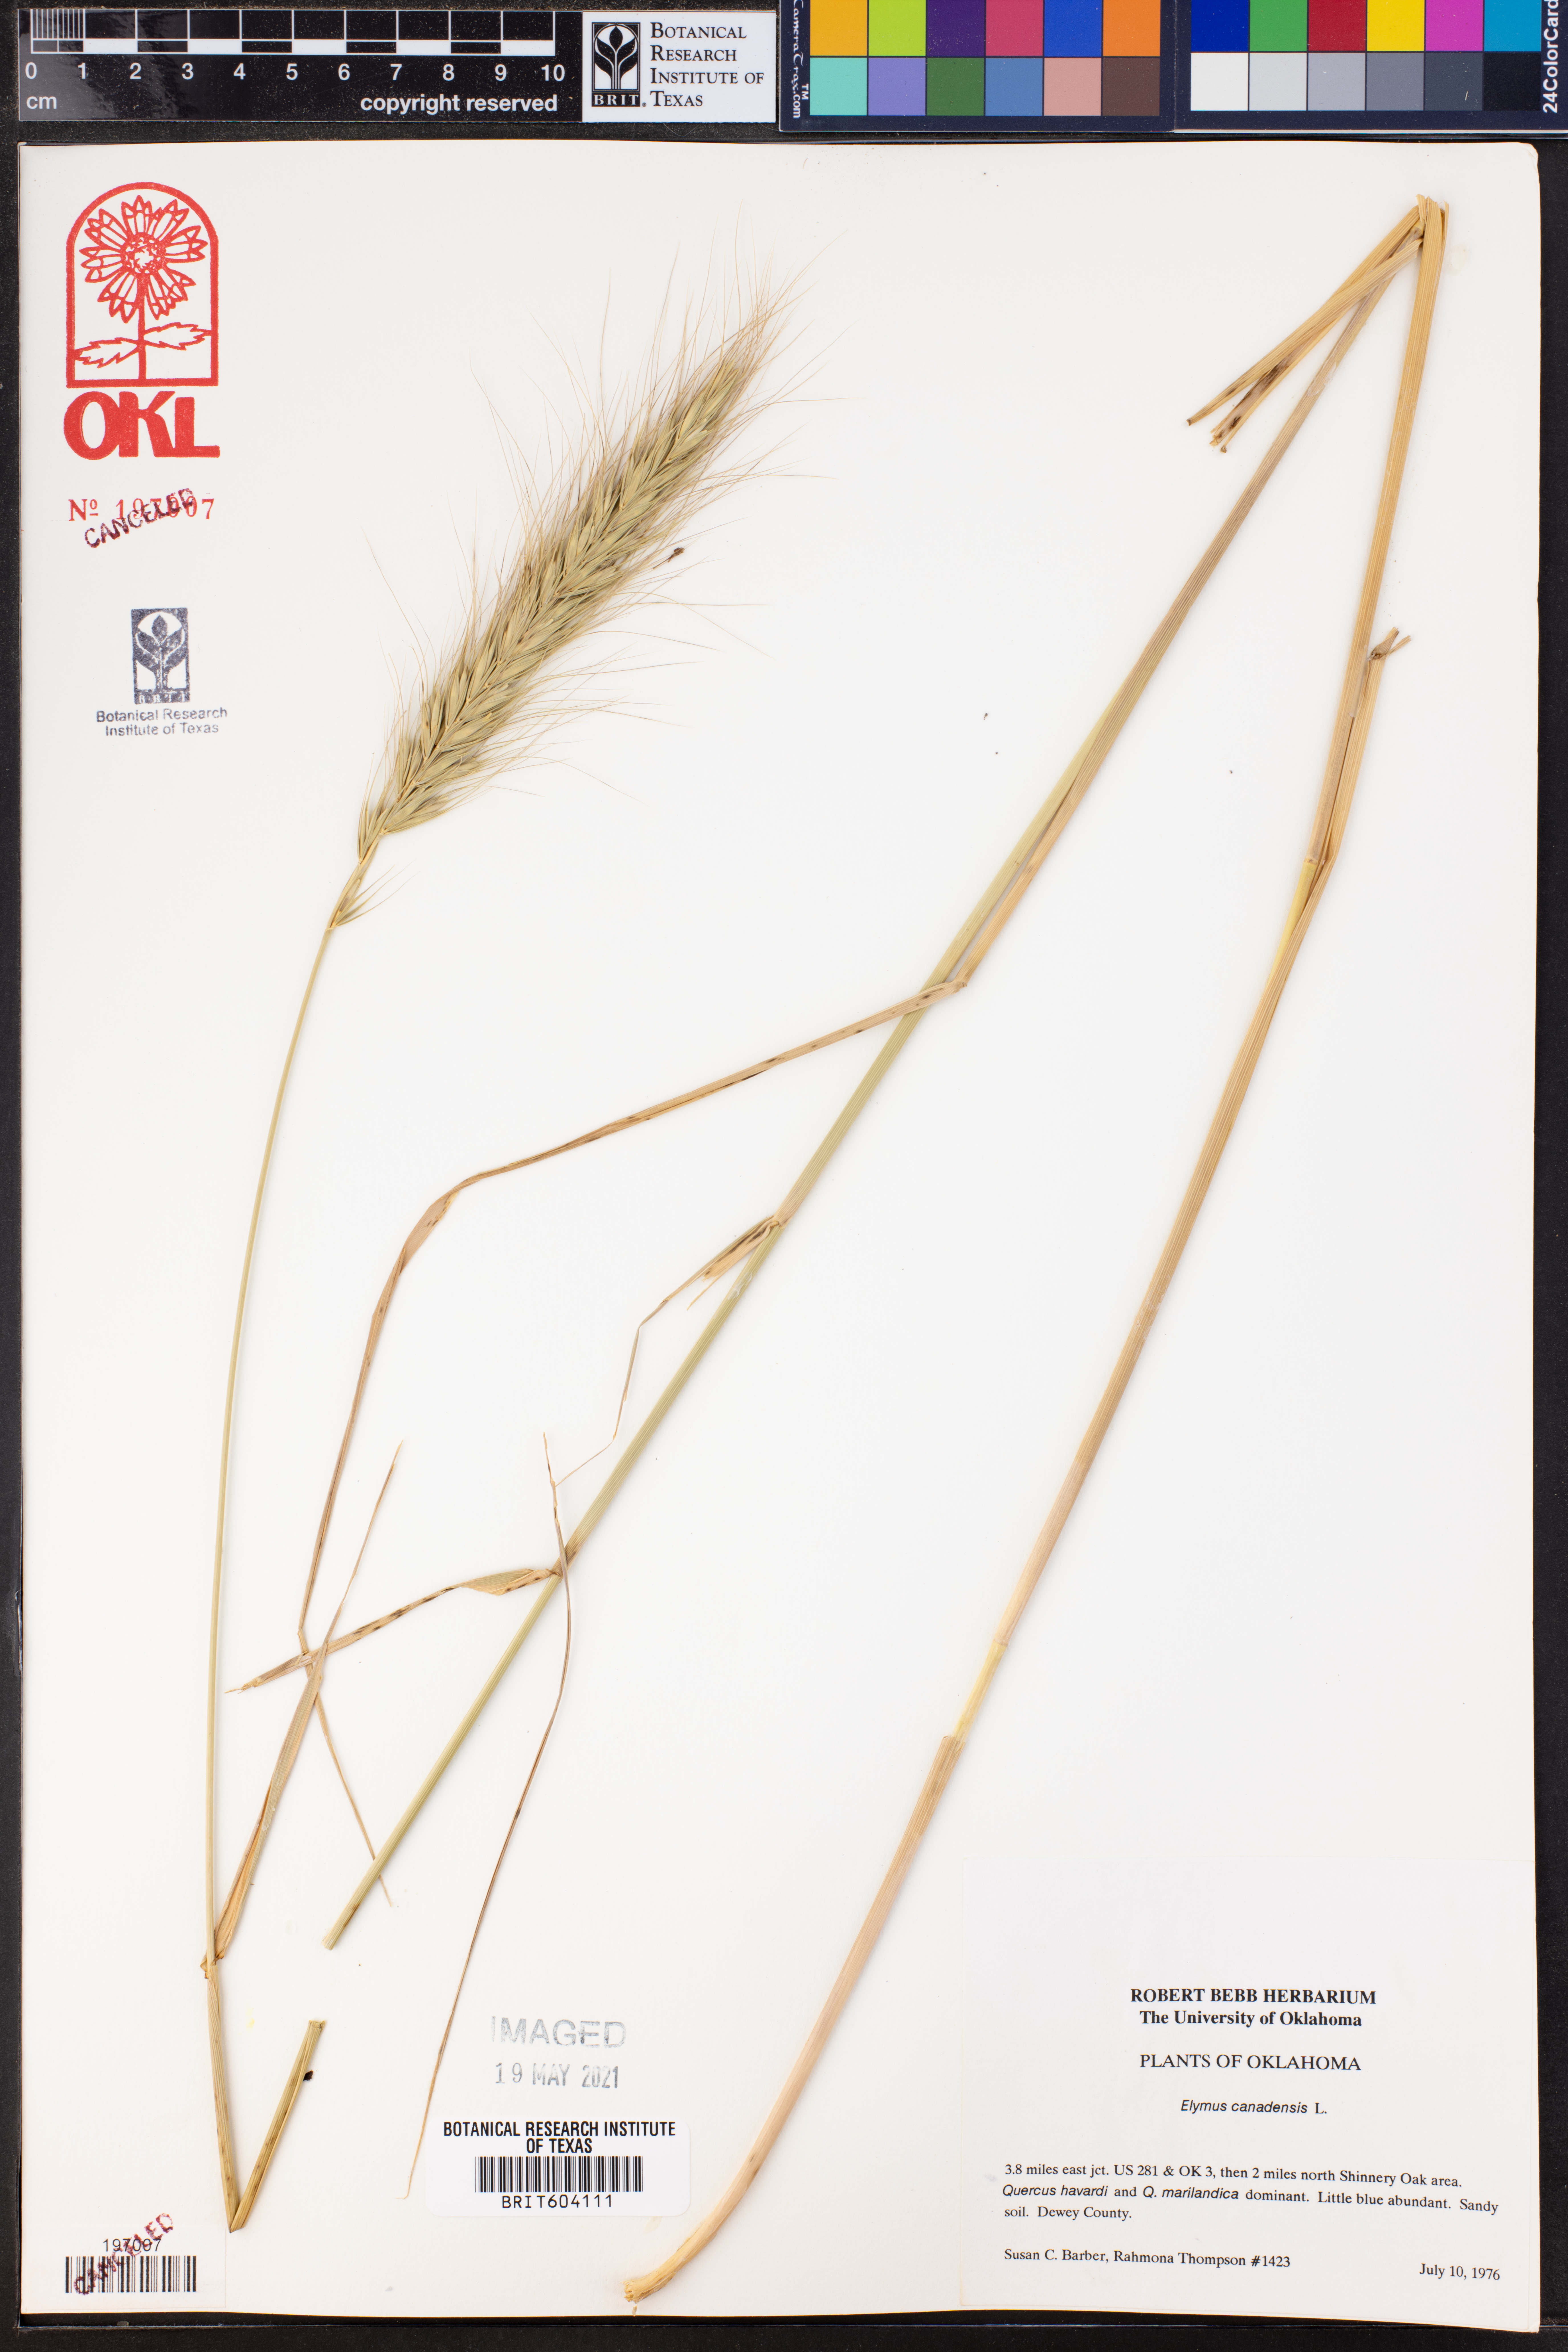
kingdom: Plantae
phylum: Tracheophyta
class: Liliopsida
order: Poales
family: Poaceae
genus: Elymus
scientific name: Elymus canadensis
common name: Canada wild rye
